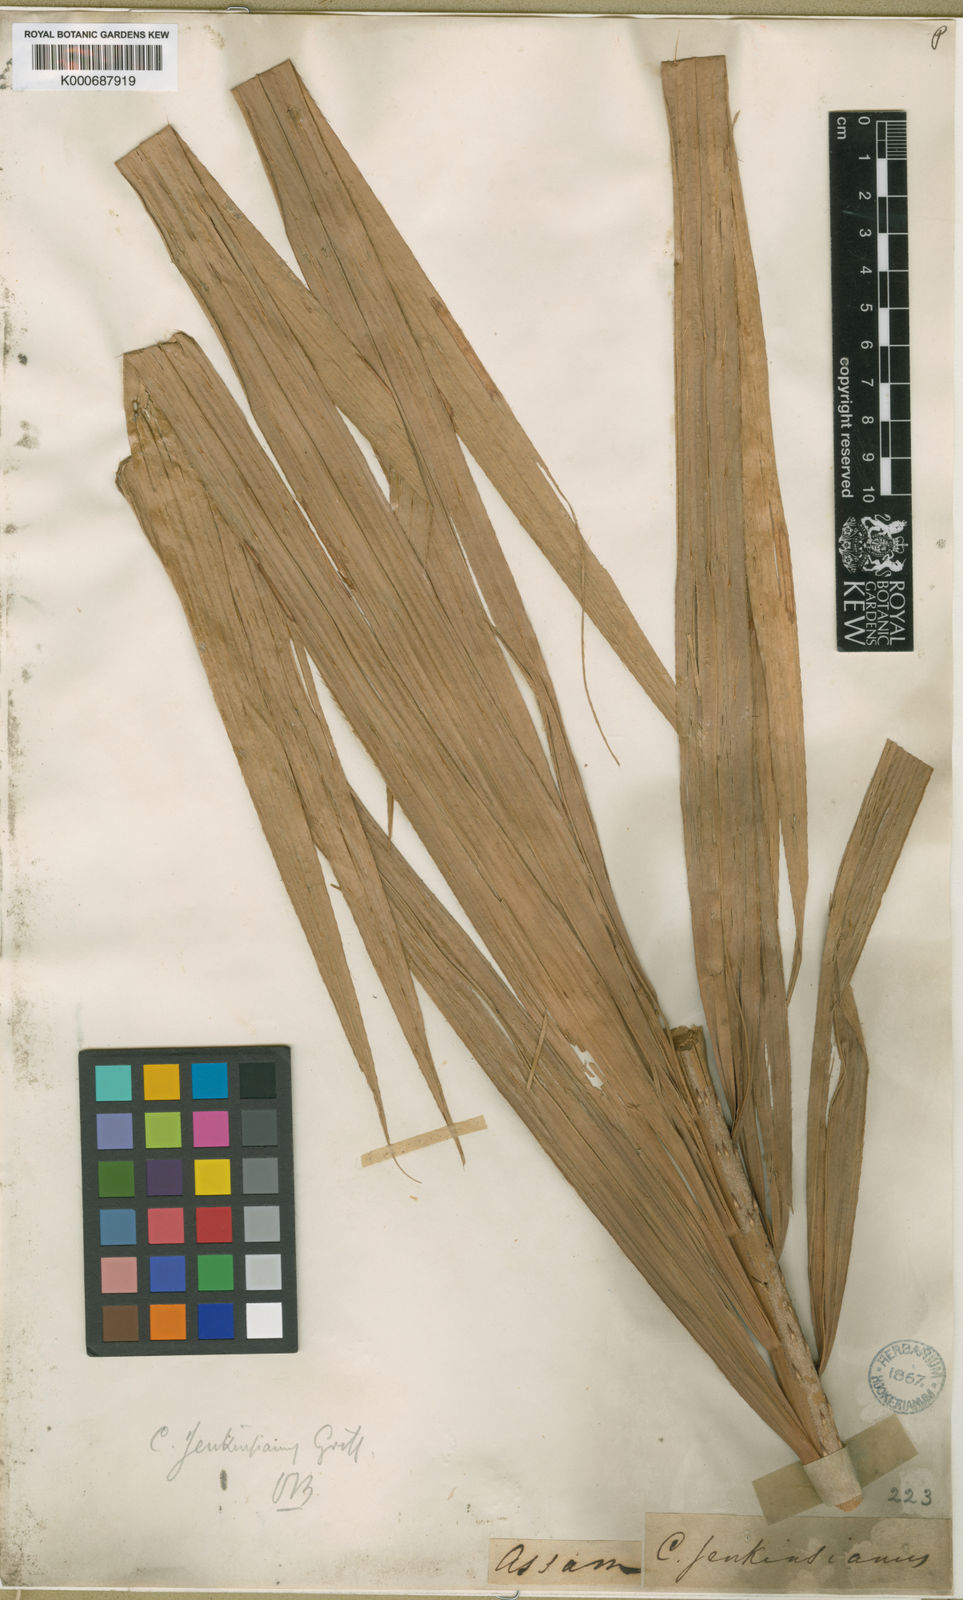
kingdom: Plantae
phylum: Tracheophyta
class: Liliopsida
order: Arecales
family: Arecaceae
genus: Calamus
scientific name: Calamus melanochaetes
